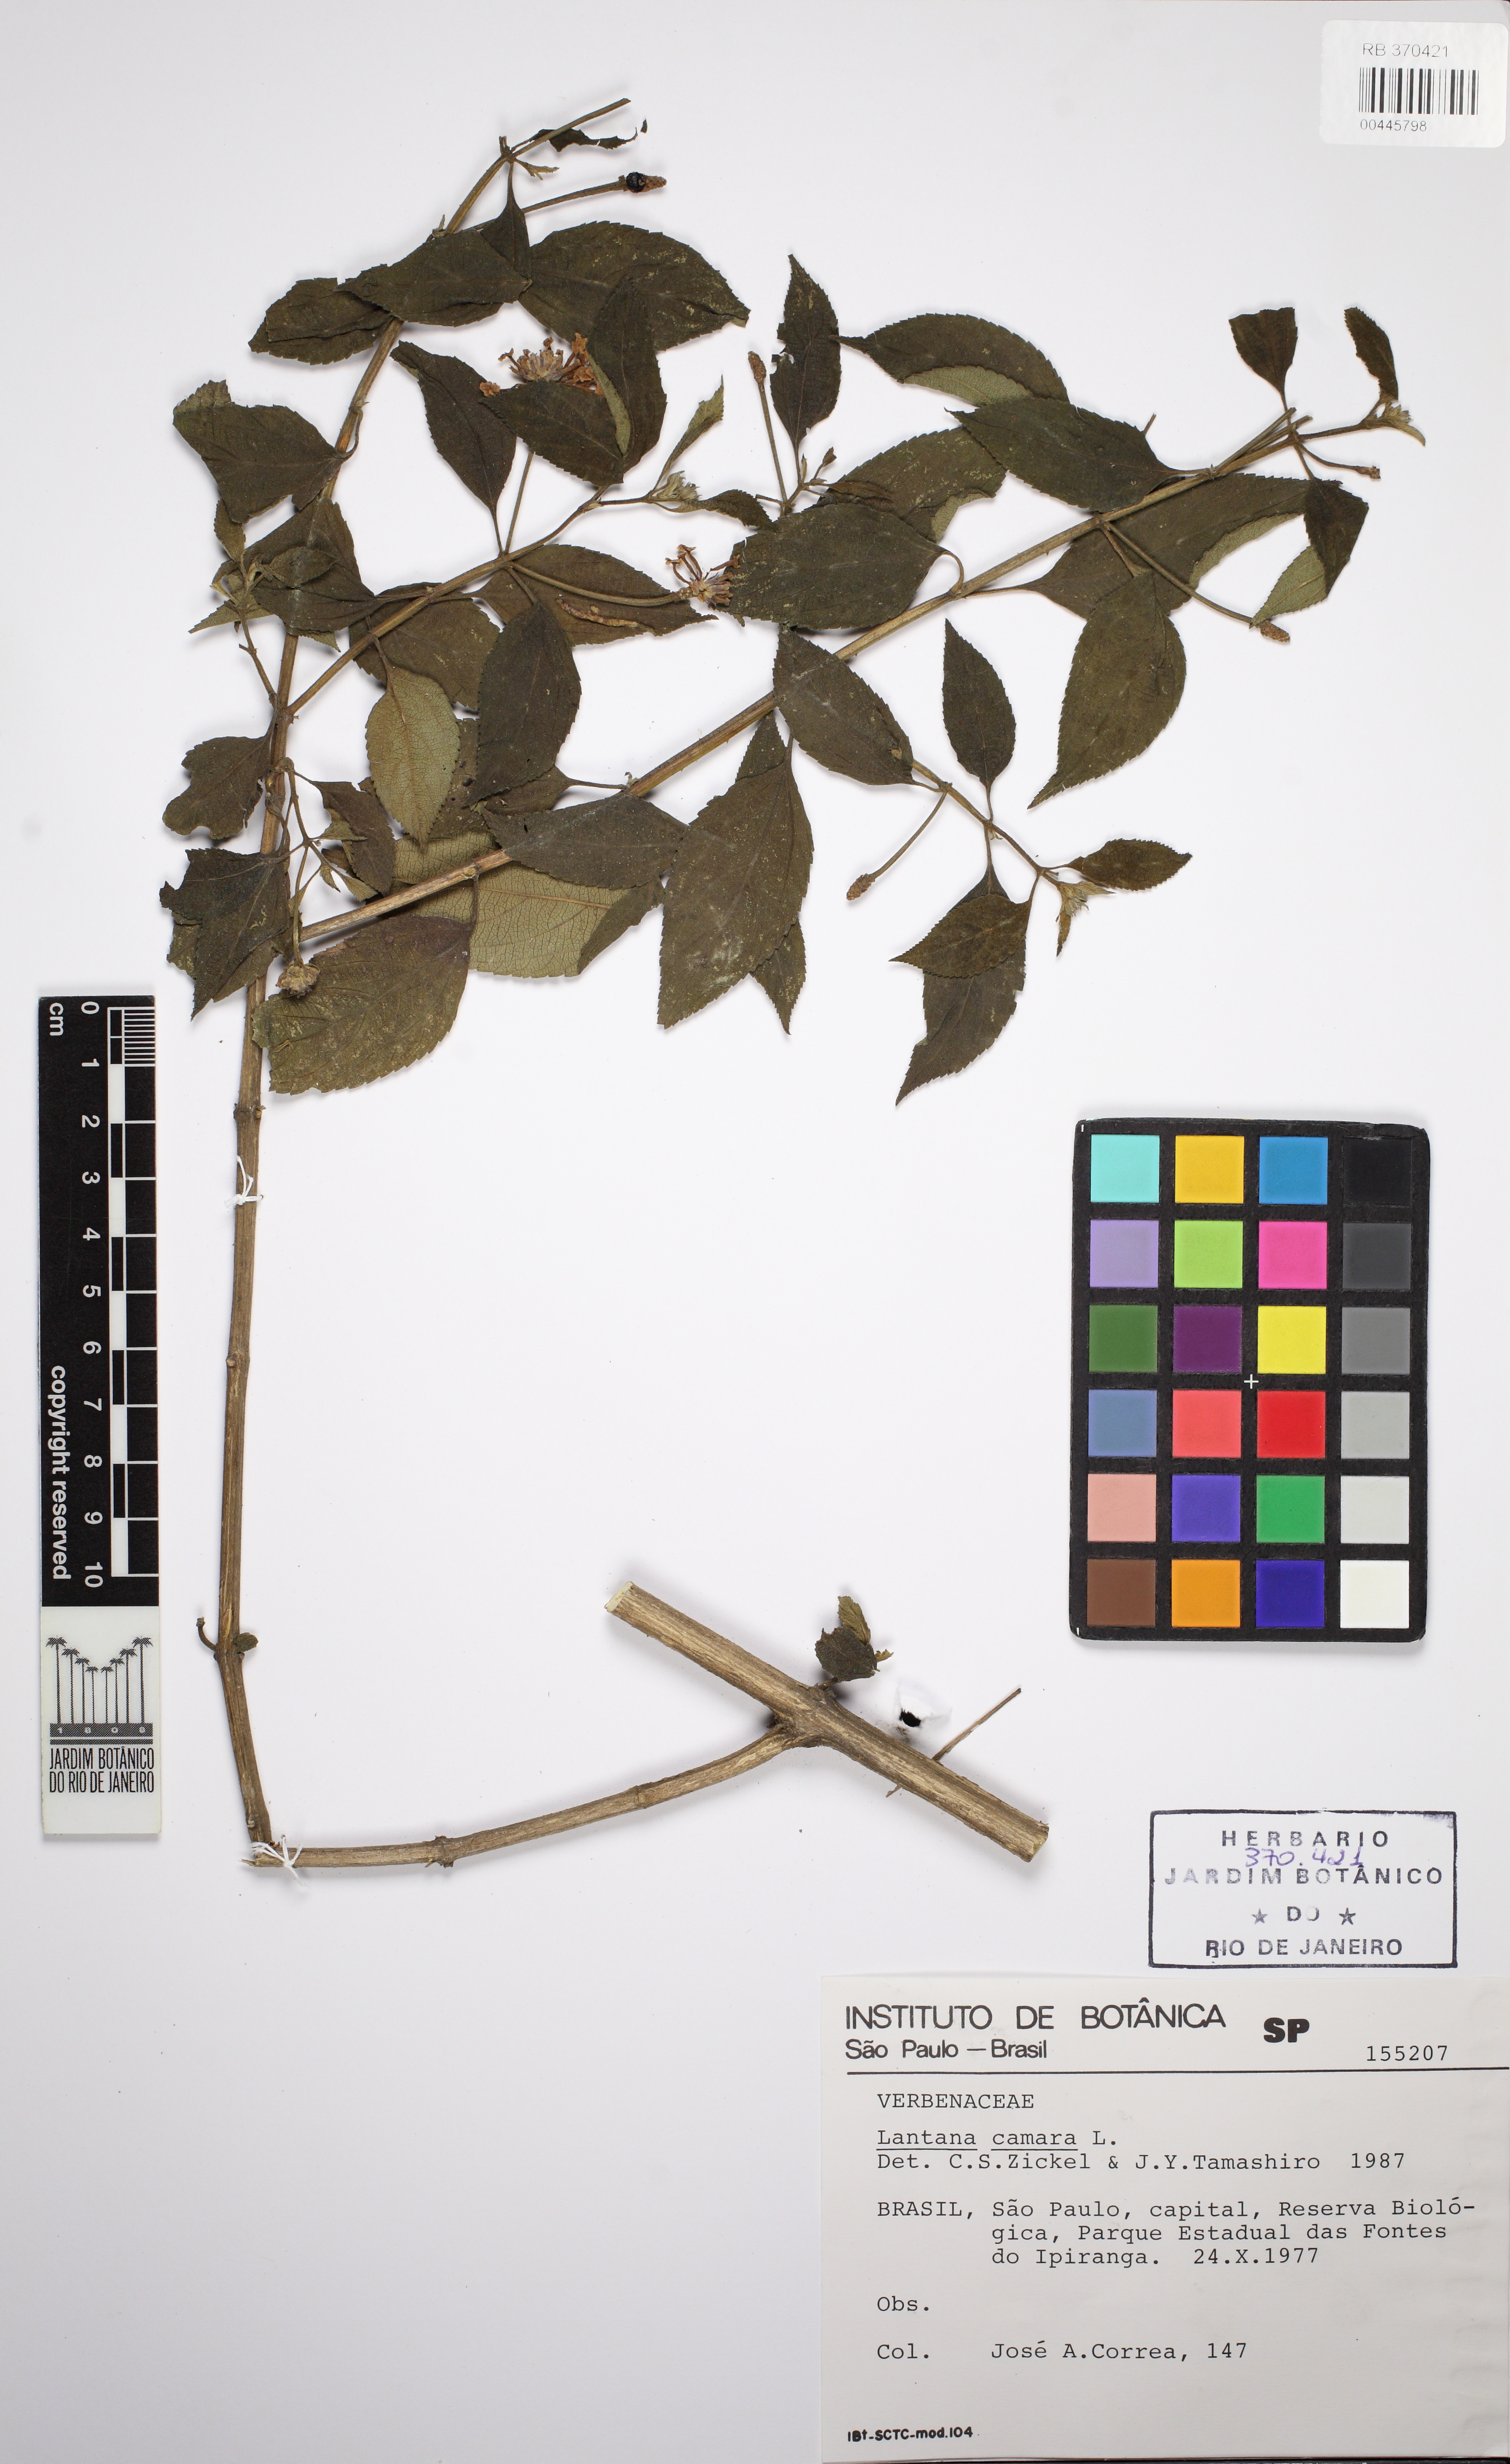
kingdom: Plantae
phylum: Tracheophyta
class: Magnoliopsida
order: Lamiales
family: Verbenaceae
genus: Lantana
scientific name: Lantana camara
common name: Lantana
